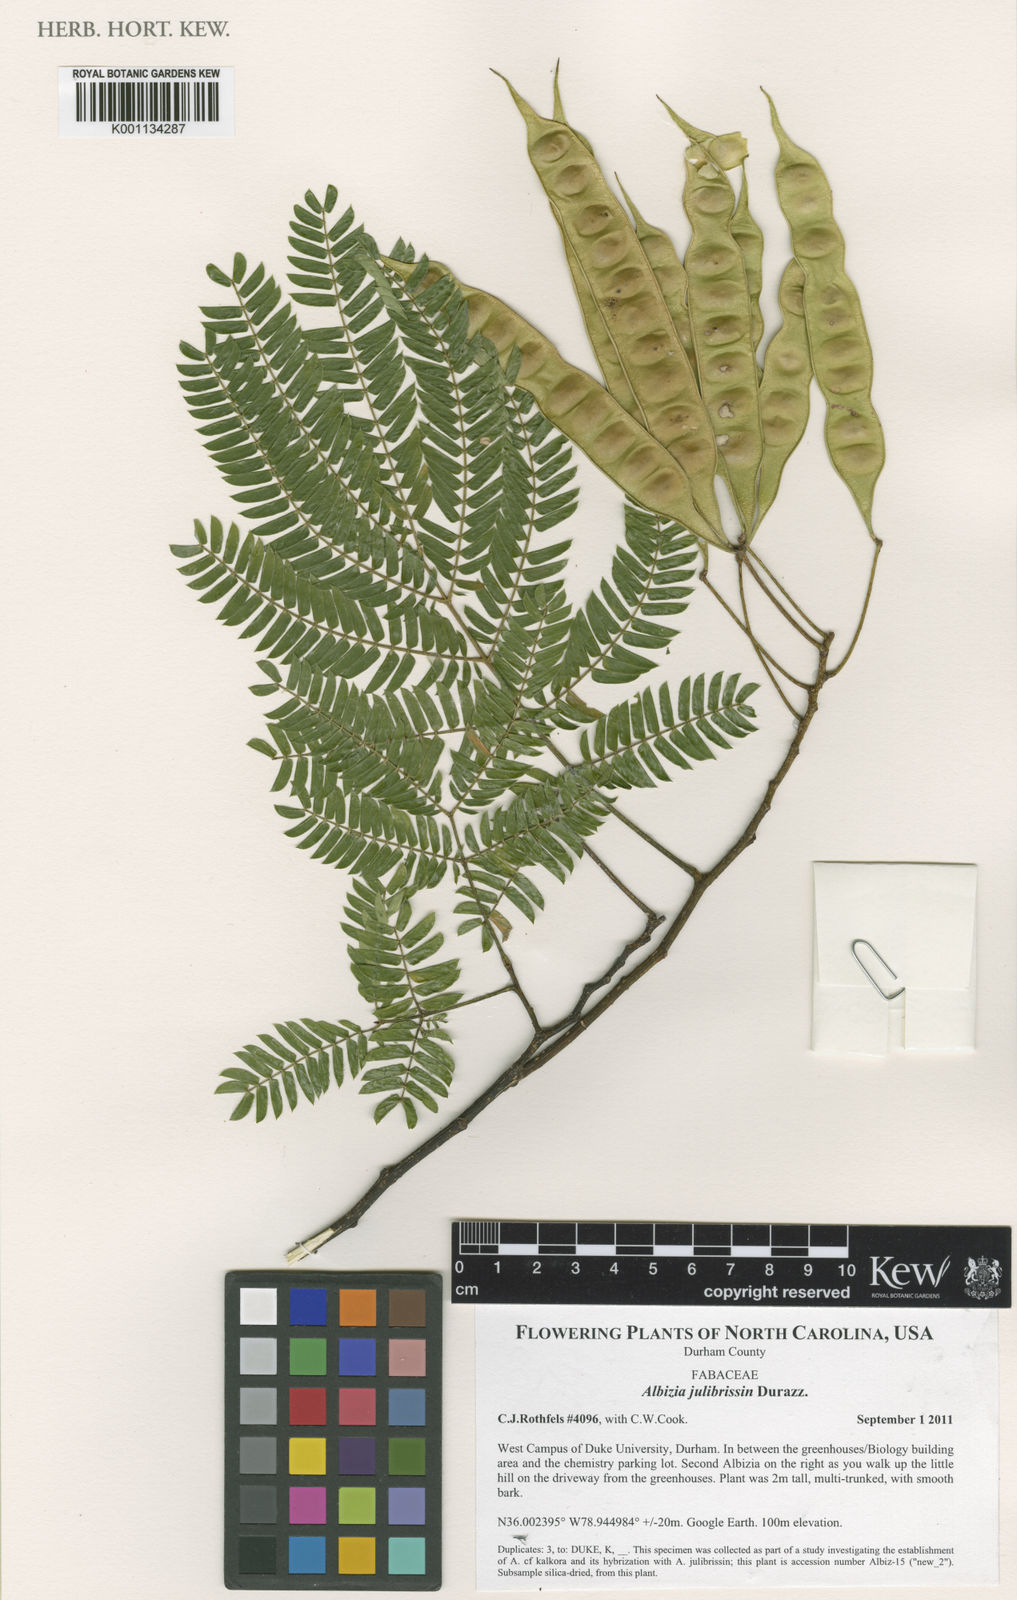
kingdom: Plantae
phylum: Tracheophyta
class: Magnoliopsida
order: Fabales
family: Fabaceae
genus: Albizia
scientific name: Albizia julibrissin
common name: Silktree
